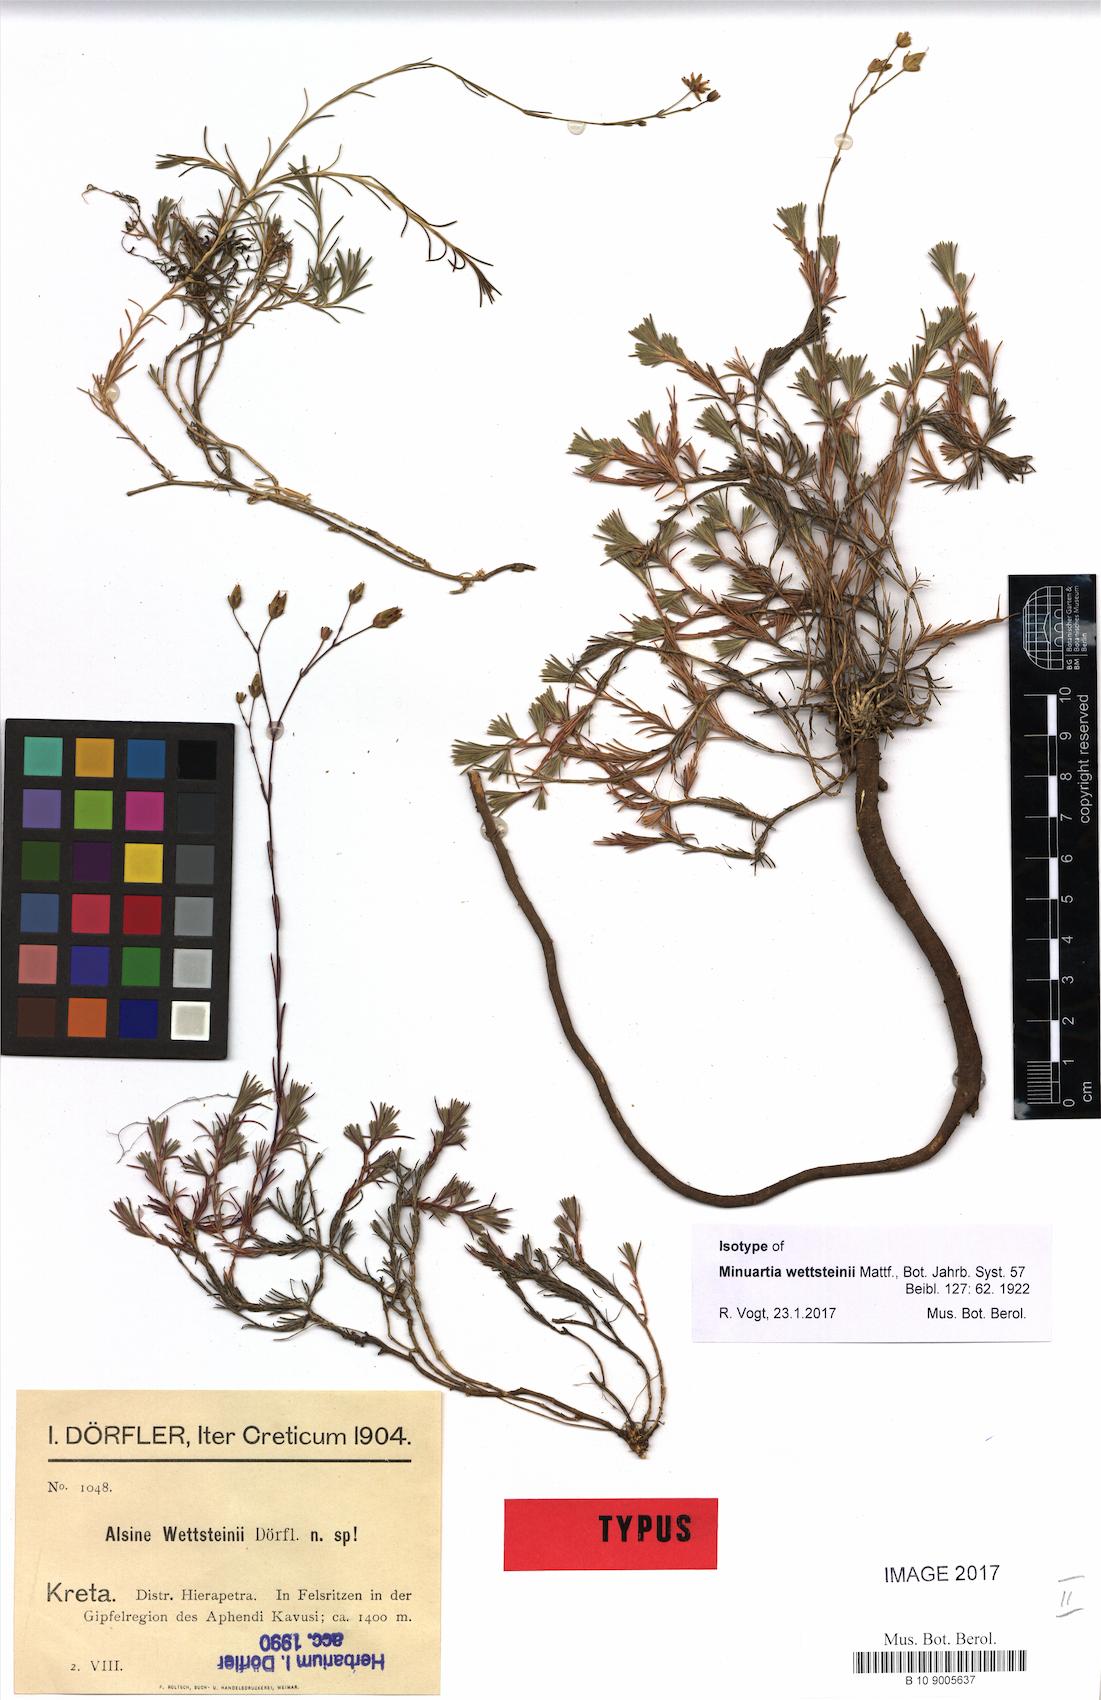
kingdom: Plantae
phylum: Tracheophyta
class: Magnoliopsida
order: Caryophyllales
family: Caryophyllaceae
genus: Cherleria
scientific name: Cherleria wettsteinii
